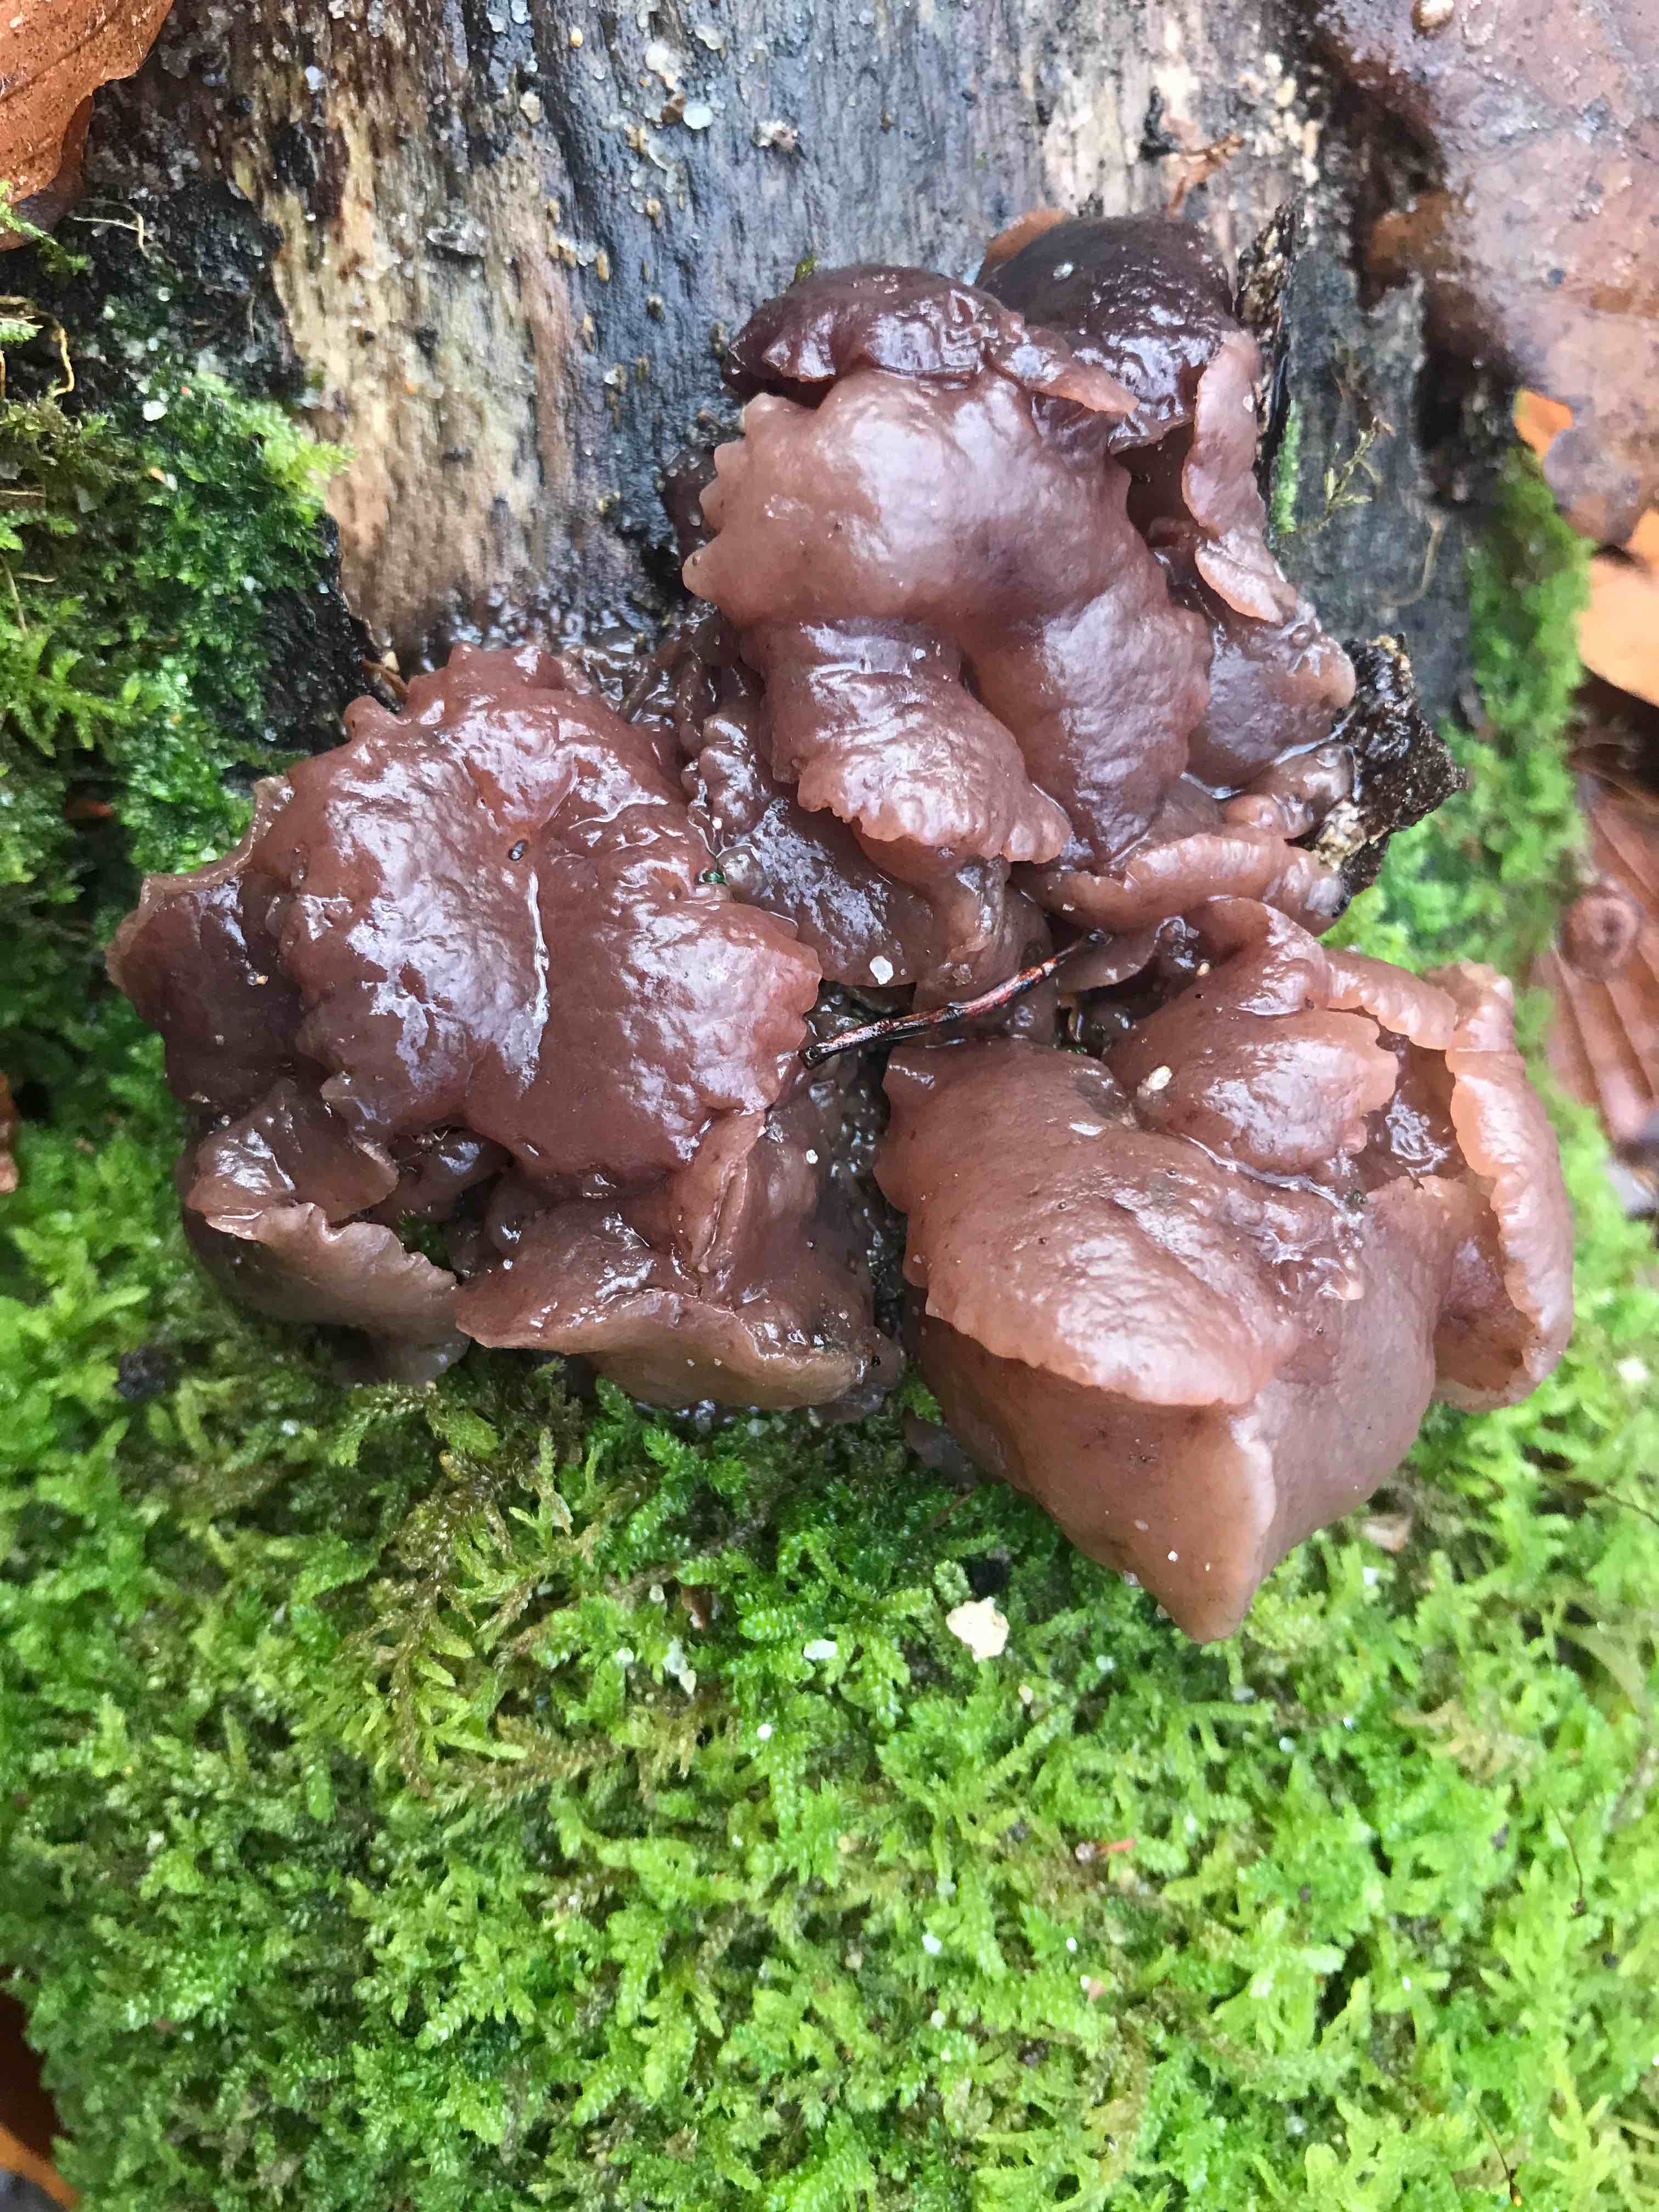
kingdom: Fungi
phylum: Ascomycota
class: Leotiomycetes
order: Helotiales
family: Gelatinodiscaceae
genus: Neobulgaria
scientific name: Neobulgaria pura
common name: bleg bævreskive
